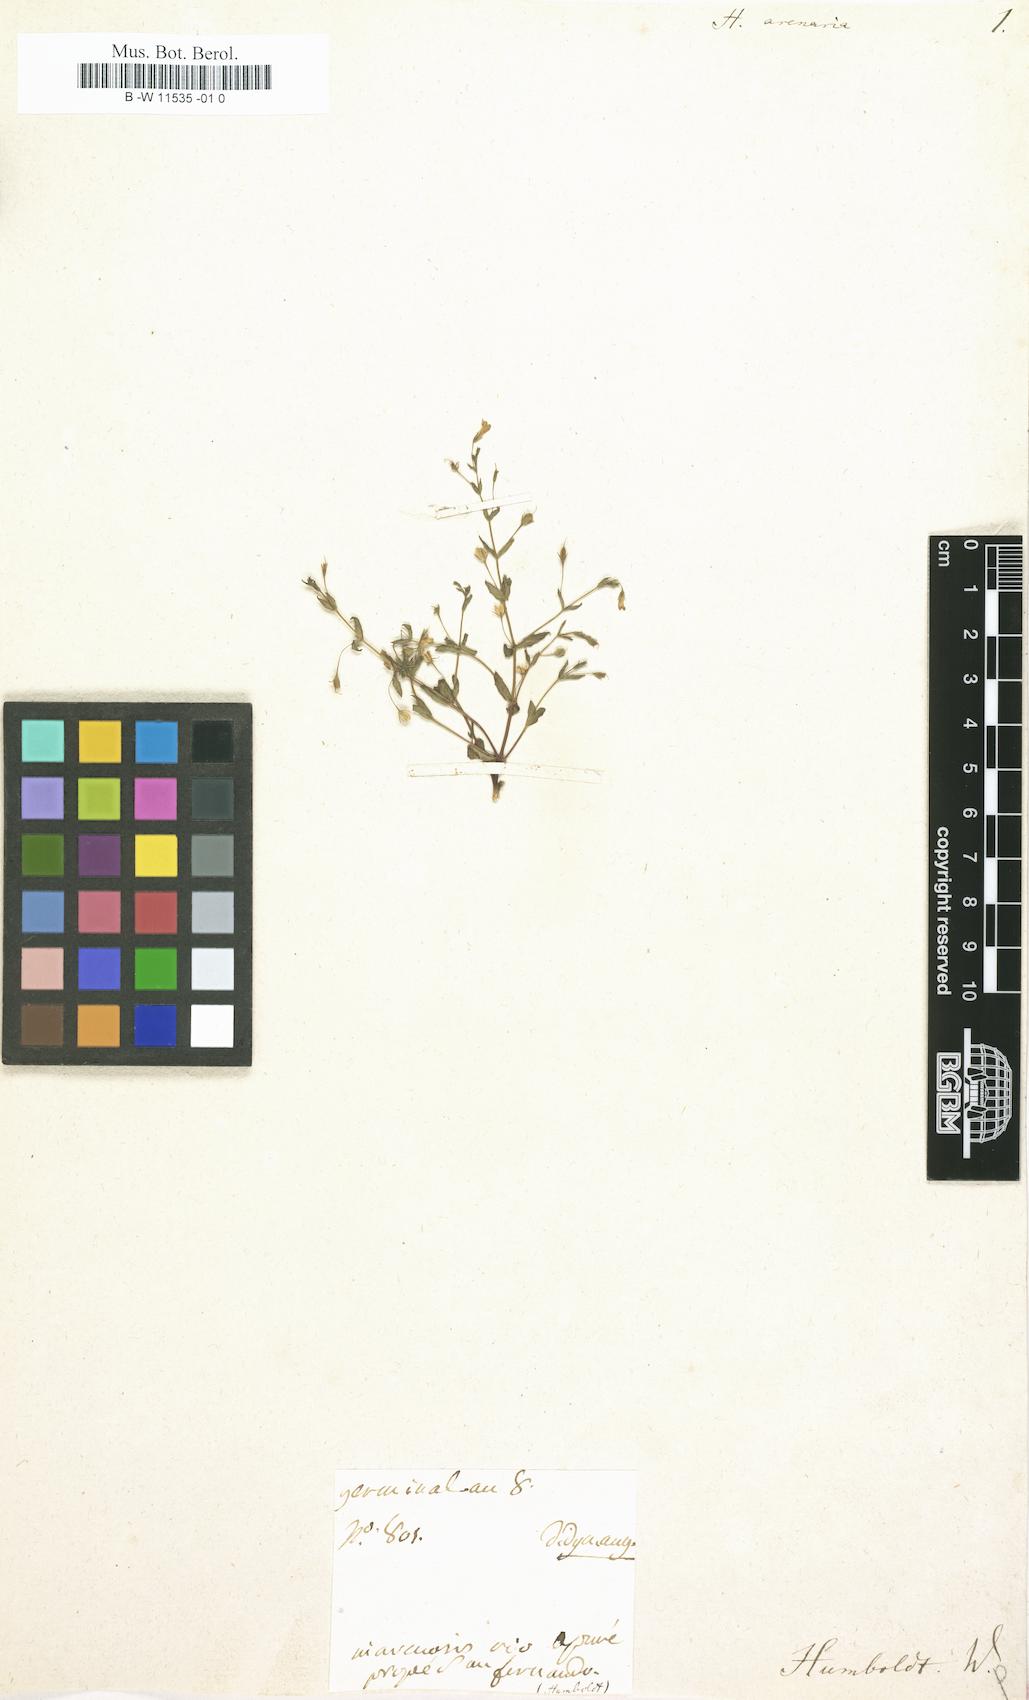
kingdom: Plantae
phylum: Tracheophyta
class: Magnoliopsida
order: Lamiales
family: Plantaginaceae
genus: Bacopa
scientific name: Bacopa arenaria
